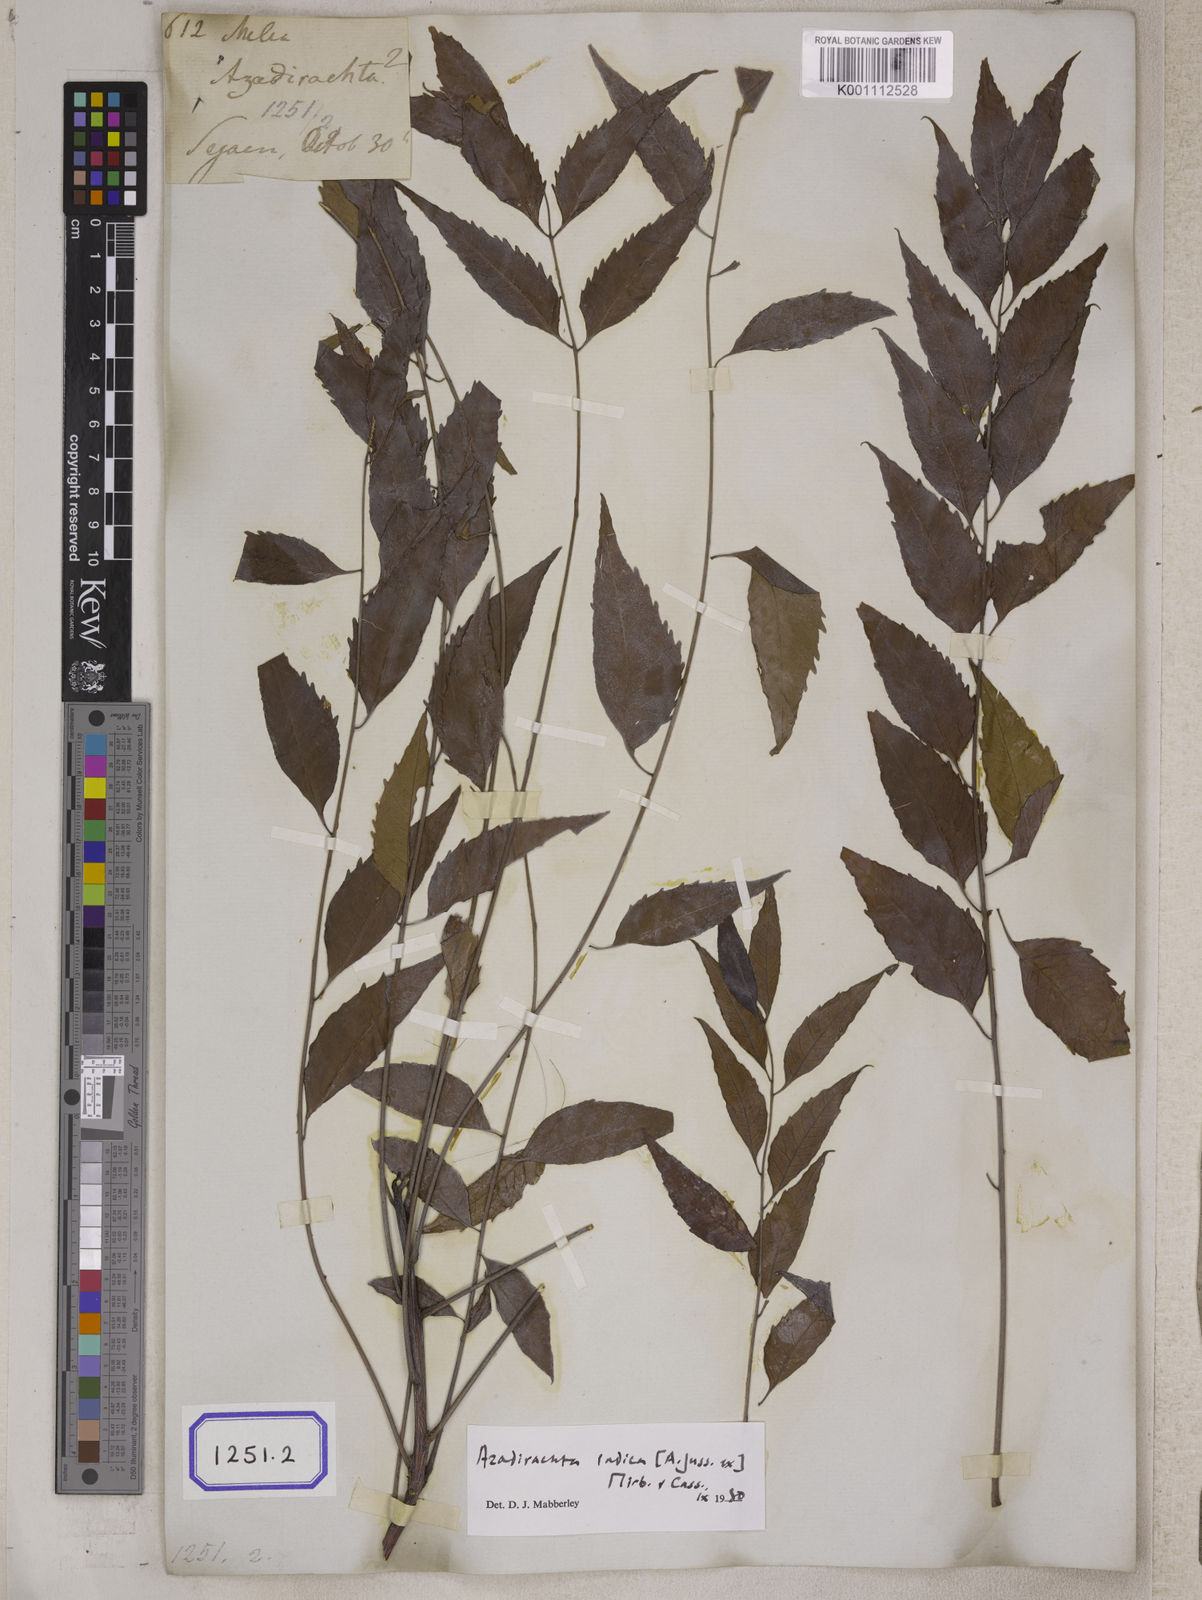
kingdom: Plantae
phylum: Tracheophyta
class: Magnoliopsida
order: Sapindales
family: Meliaceae
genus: Azadirachta
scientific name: Azadirachta indica
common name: Neem
